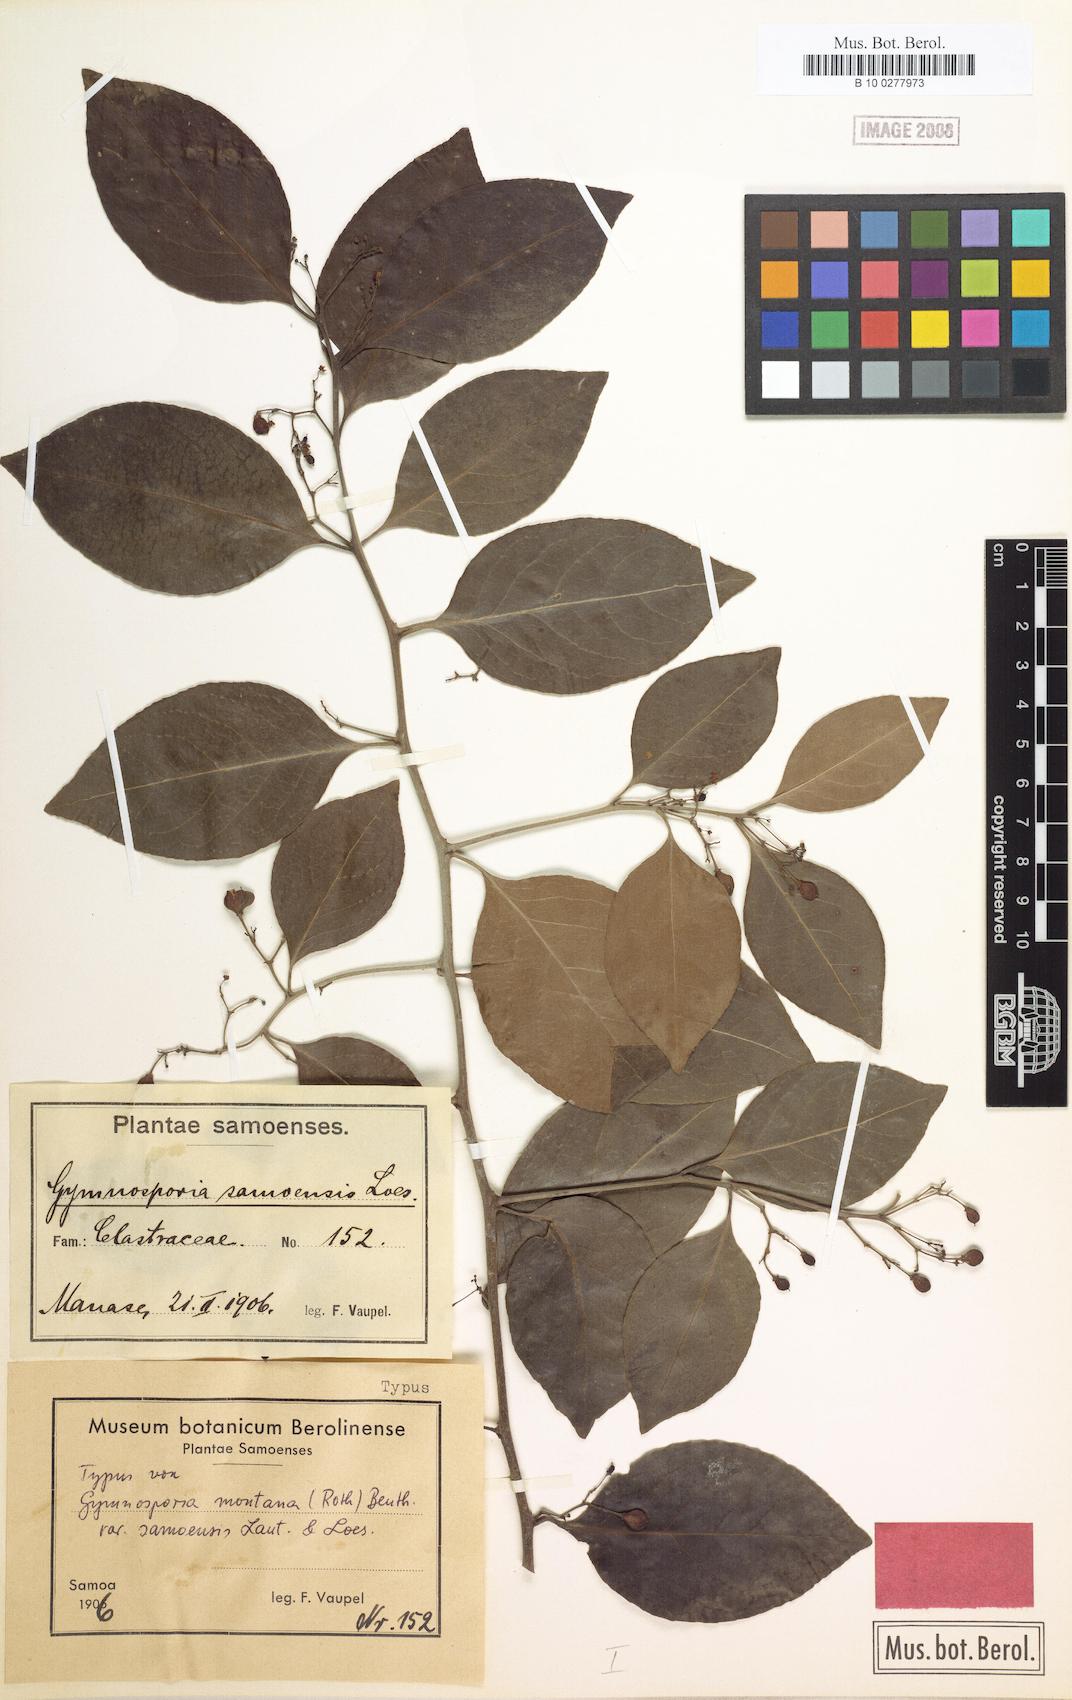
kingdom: Plantae
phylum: Tracheophyta
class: Magnoliopsida
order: Celastrales
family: Celastraceae
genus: Gymnosporia
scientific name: Gymnosporia vitiensis
